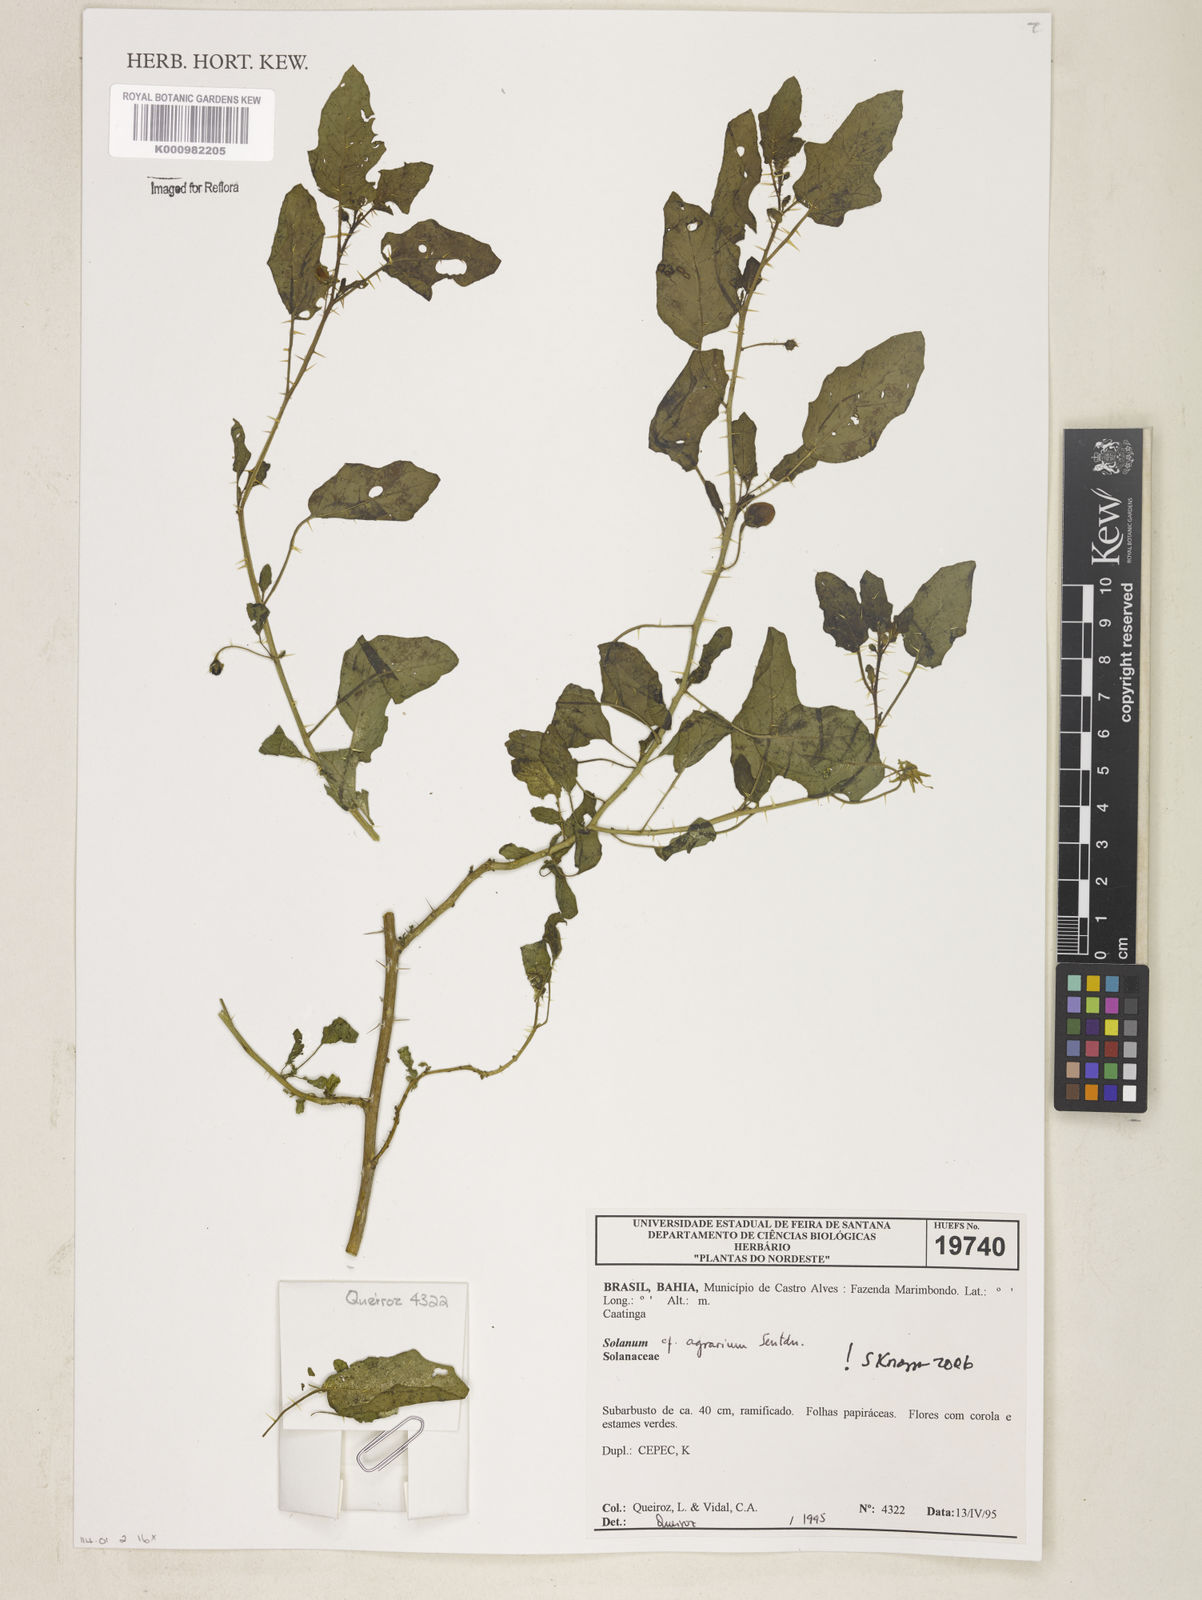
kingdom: Plantae
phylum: Tracheophyta
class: Magnoliopsida
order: Solanales
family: Solanaceae
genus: Solanum
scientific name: Solanum agrarium
